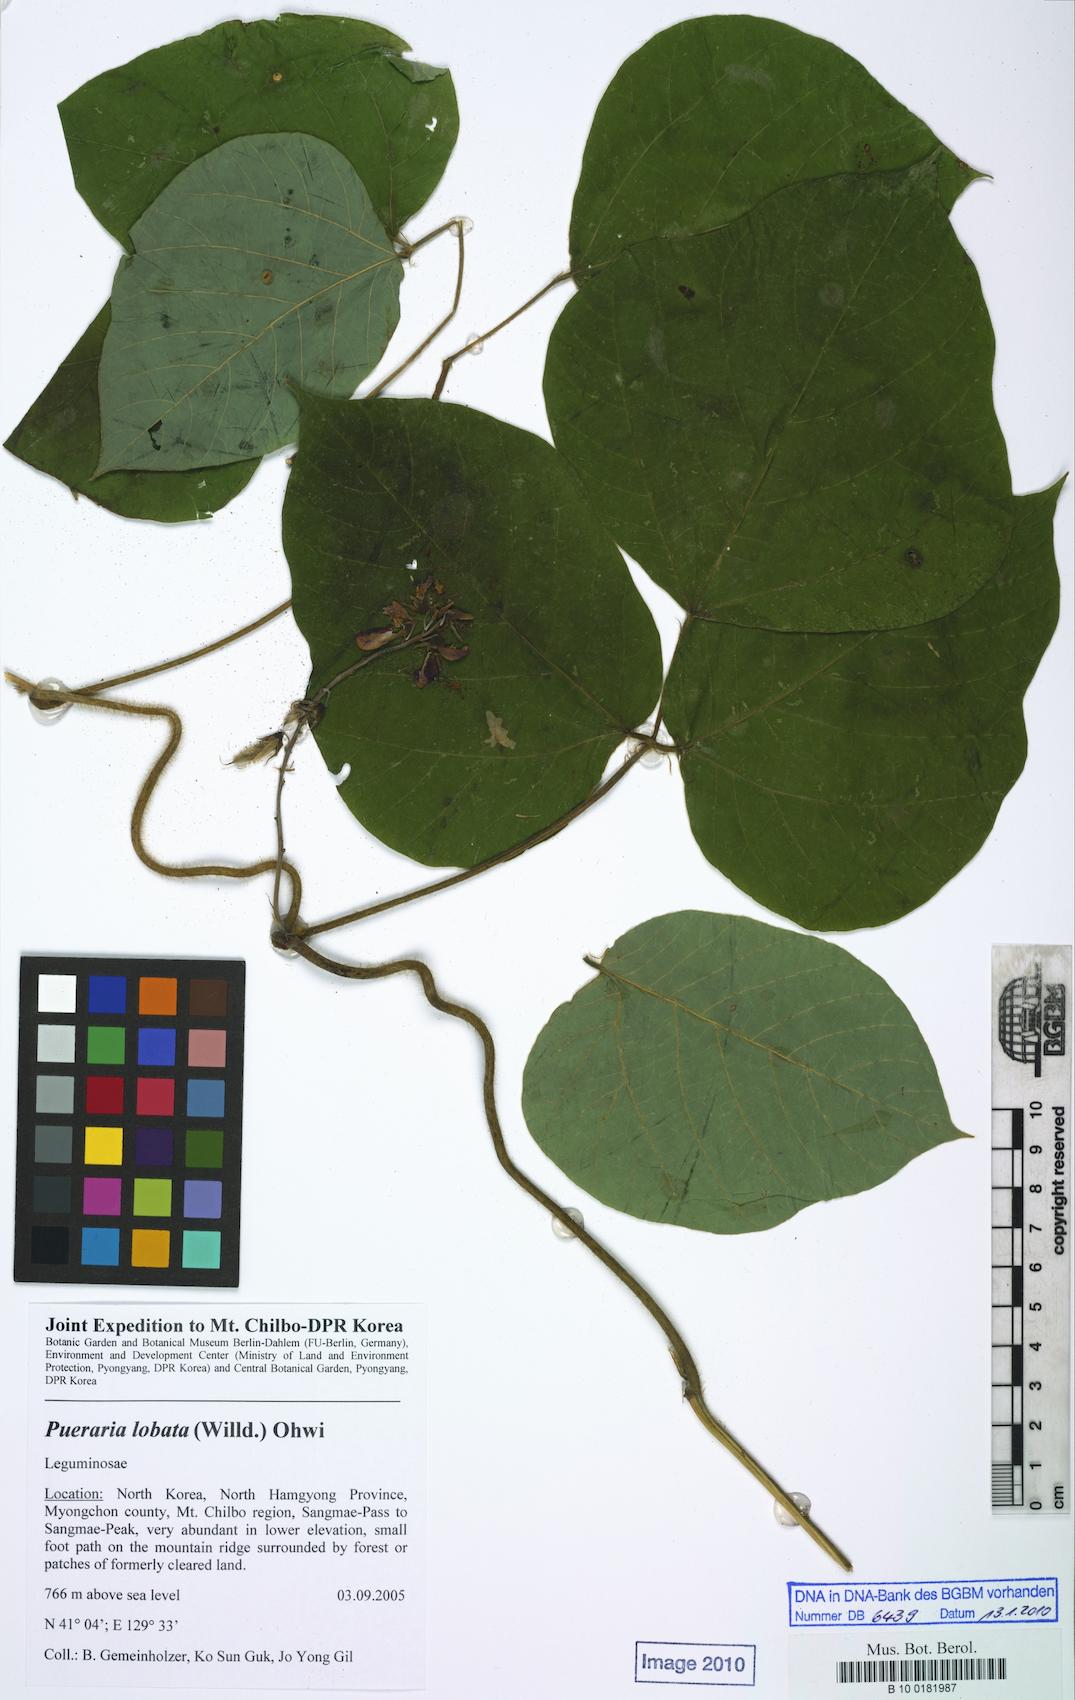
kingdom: Plantae
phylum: Tracheophyta
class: Magnoliopsida
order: Fabales
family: Fabaceae
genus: Pueraria
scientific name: Pueraria montana
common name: Kudzu
